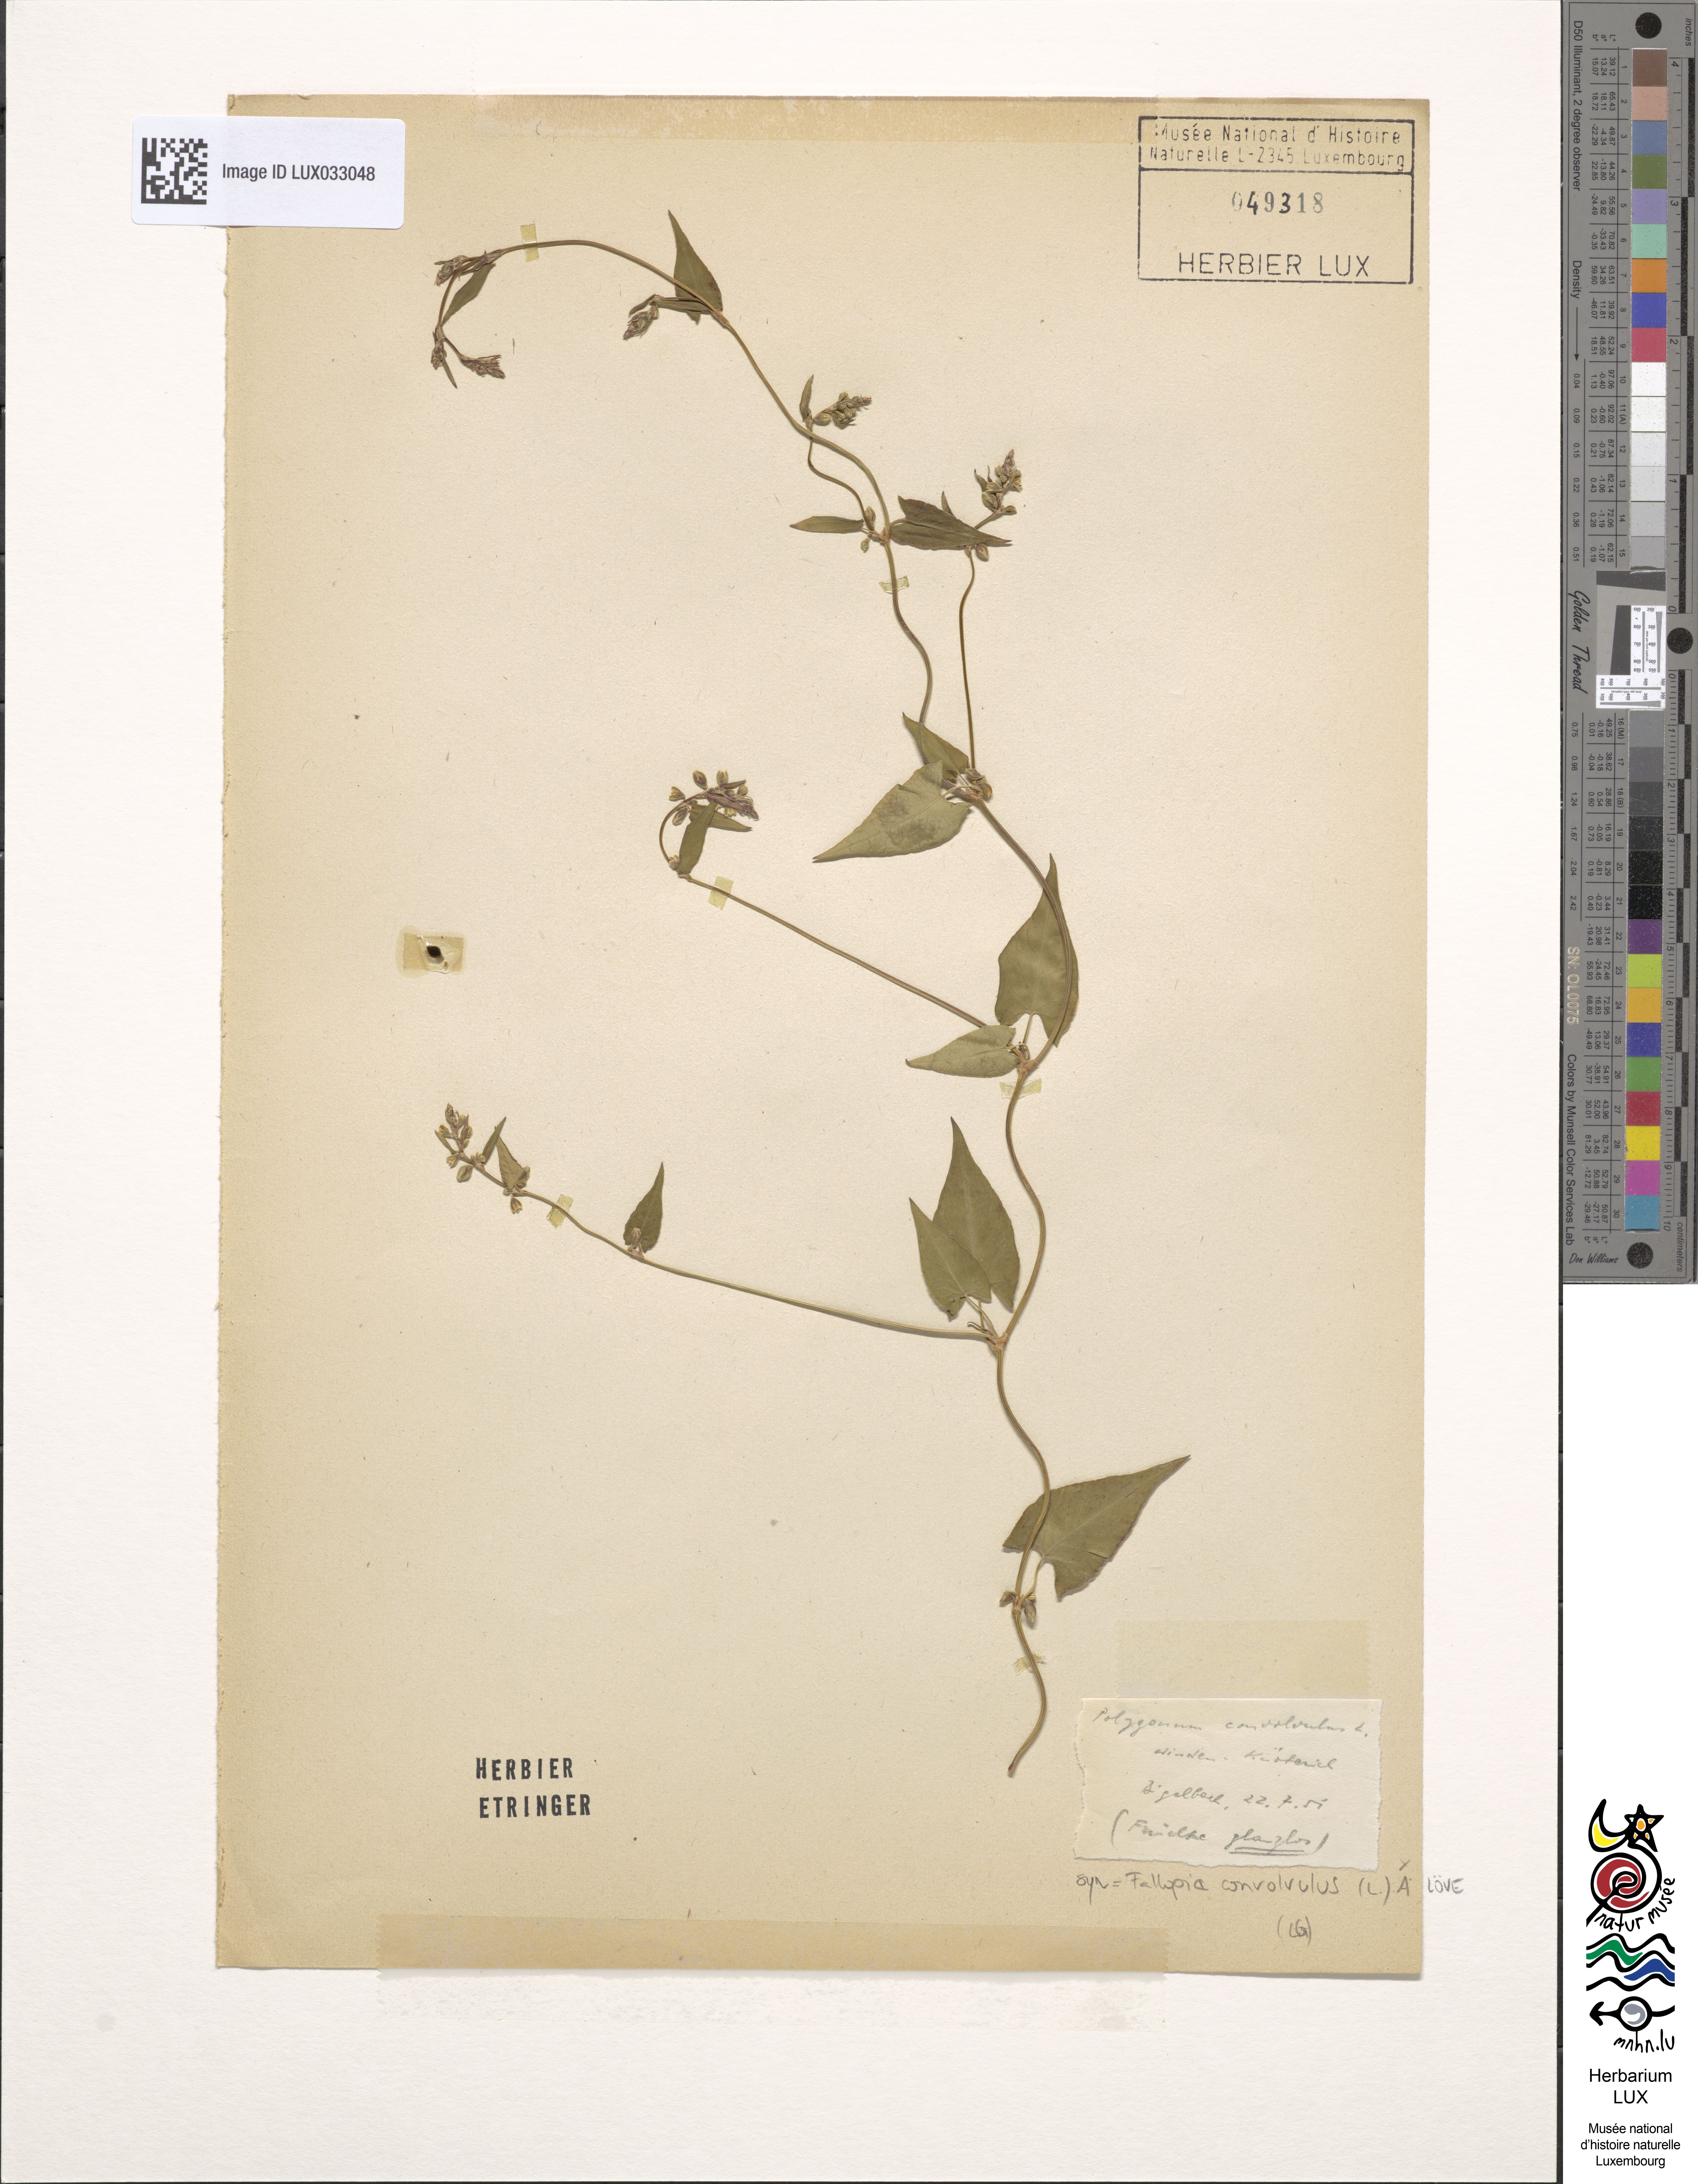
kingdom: Plantae
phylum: Tracheophyta
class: Magnoliopsida
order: Caryophyllales
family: Polygonaceae
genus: Fallopia
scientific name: Fallopia convolvulus
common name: Black bindweed
